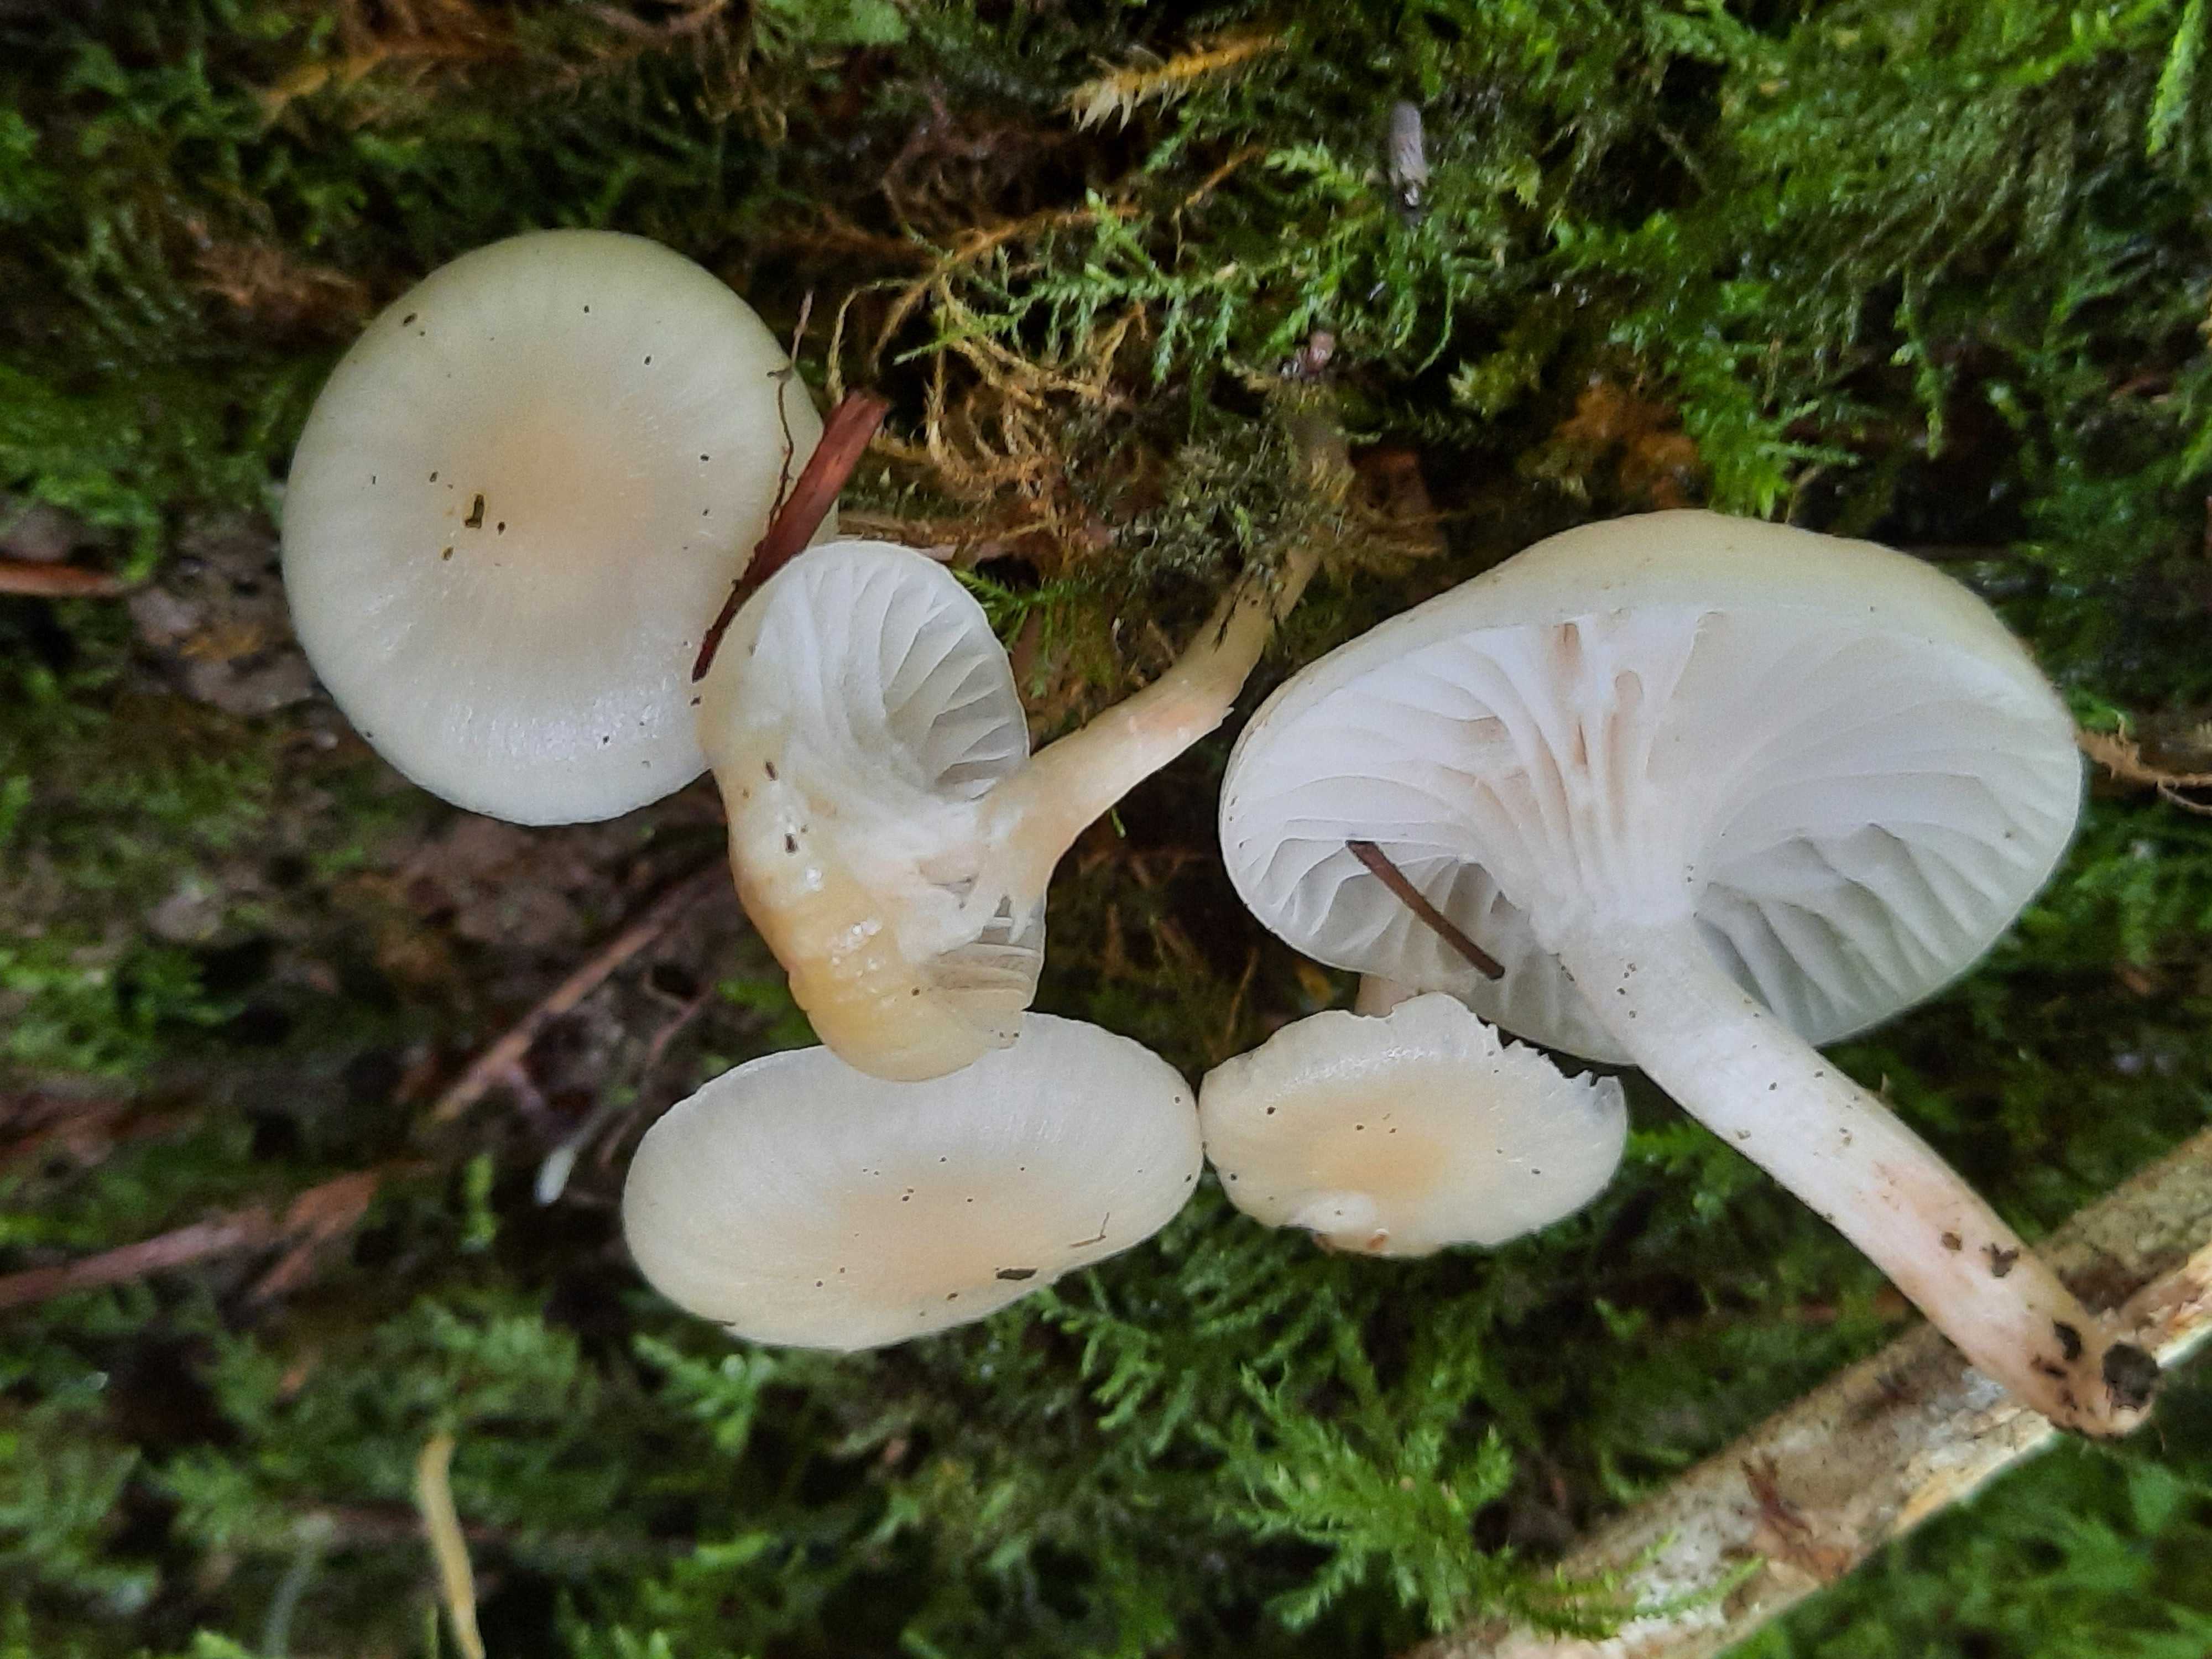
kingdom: Fungi
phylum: Basidiomycota
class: Agaricomycetes
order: Agaricales
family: Hygrophoraceae
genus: Cuphophyllus
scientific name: Cuphophyllus virgineus
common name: brunøjet vokshat
